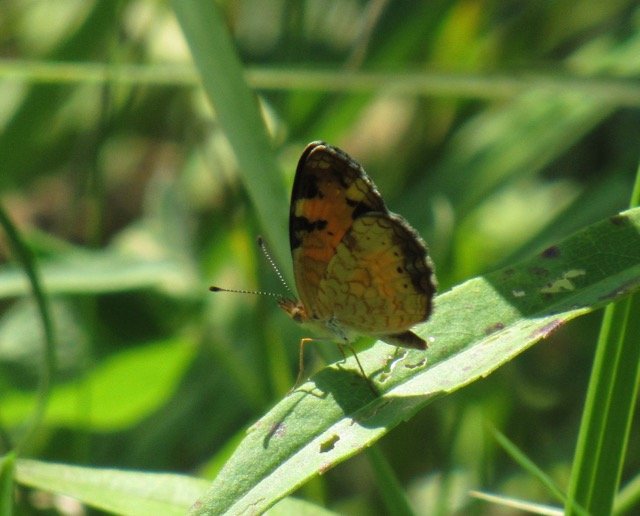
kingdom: Animalia
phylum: Arthropoda
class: Insecta
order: Lepidoptera
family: Nymphalidae
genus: Phyciodes
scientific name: Phyciodes tharos
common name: Pearl Crescent
